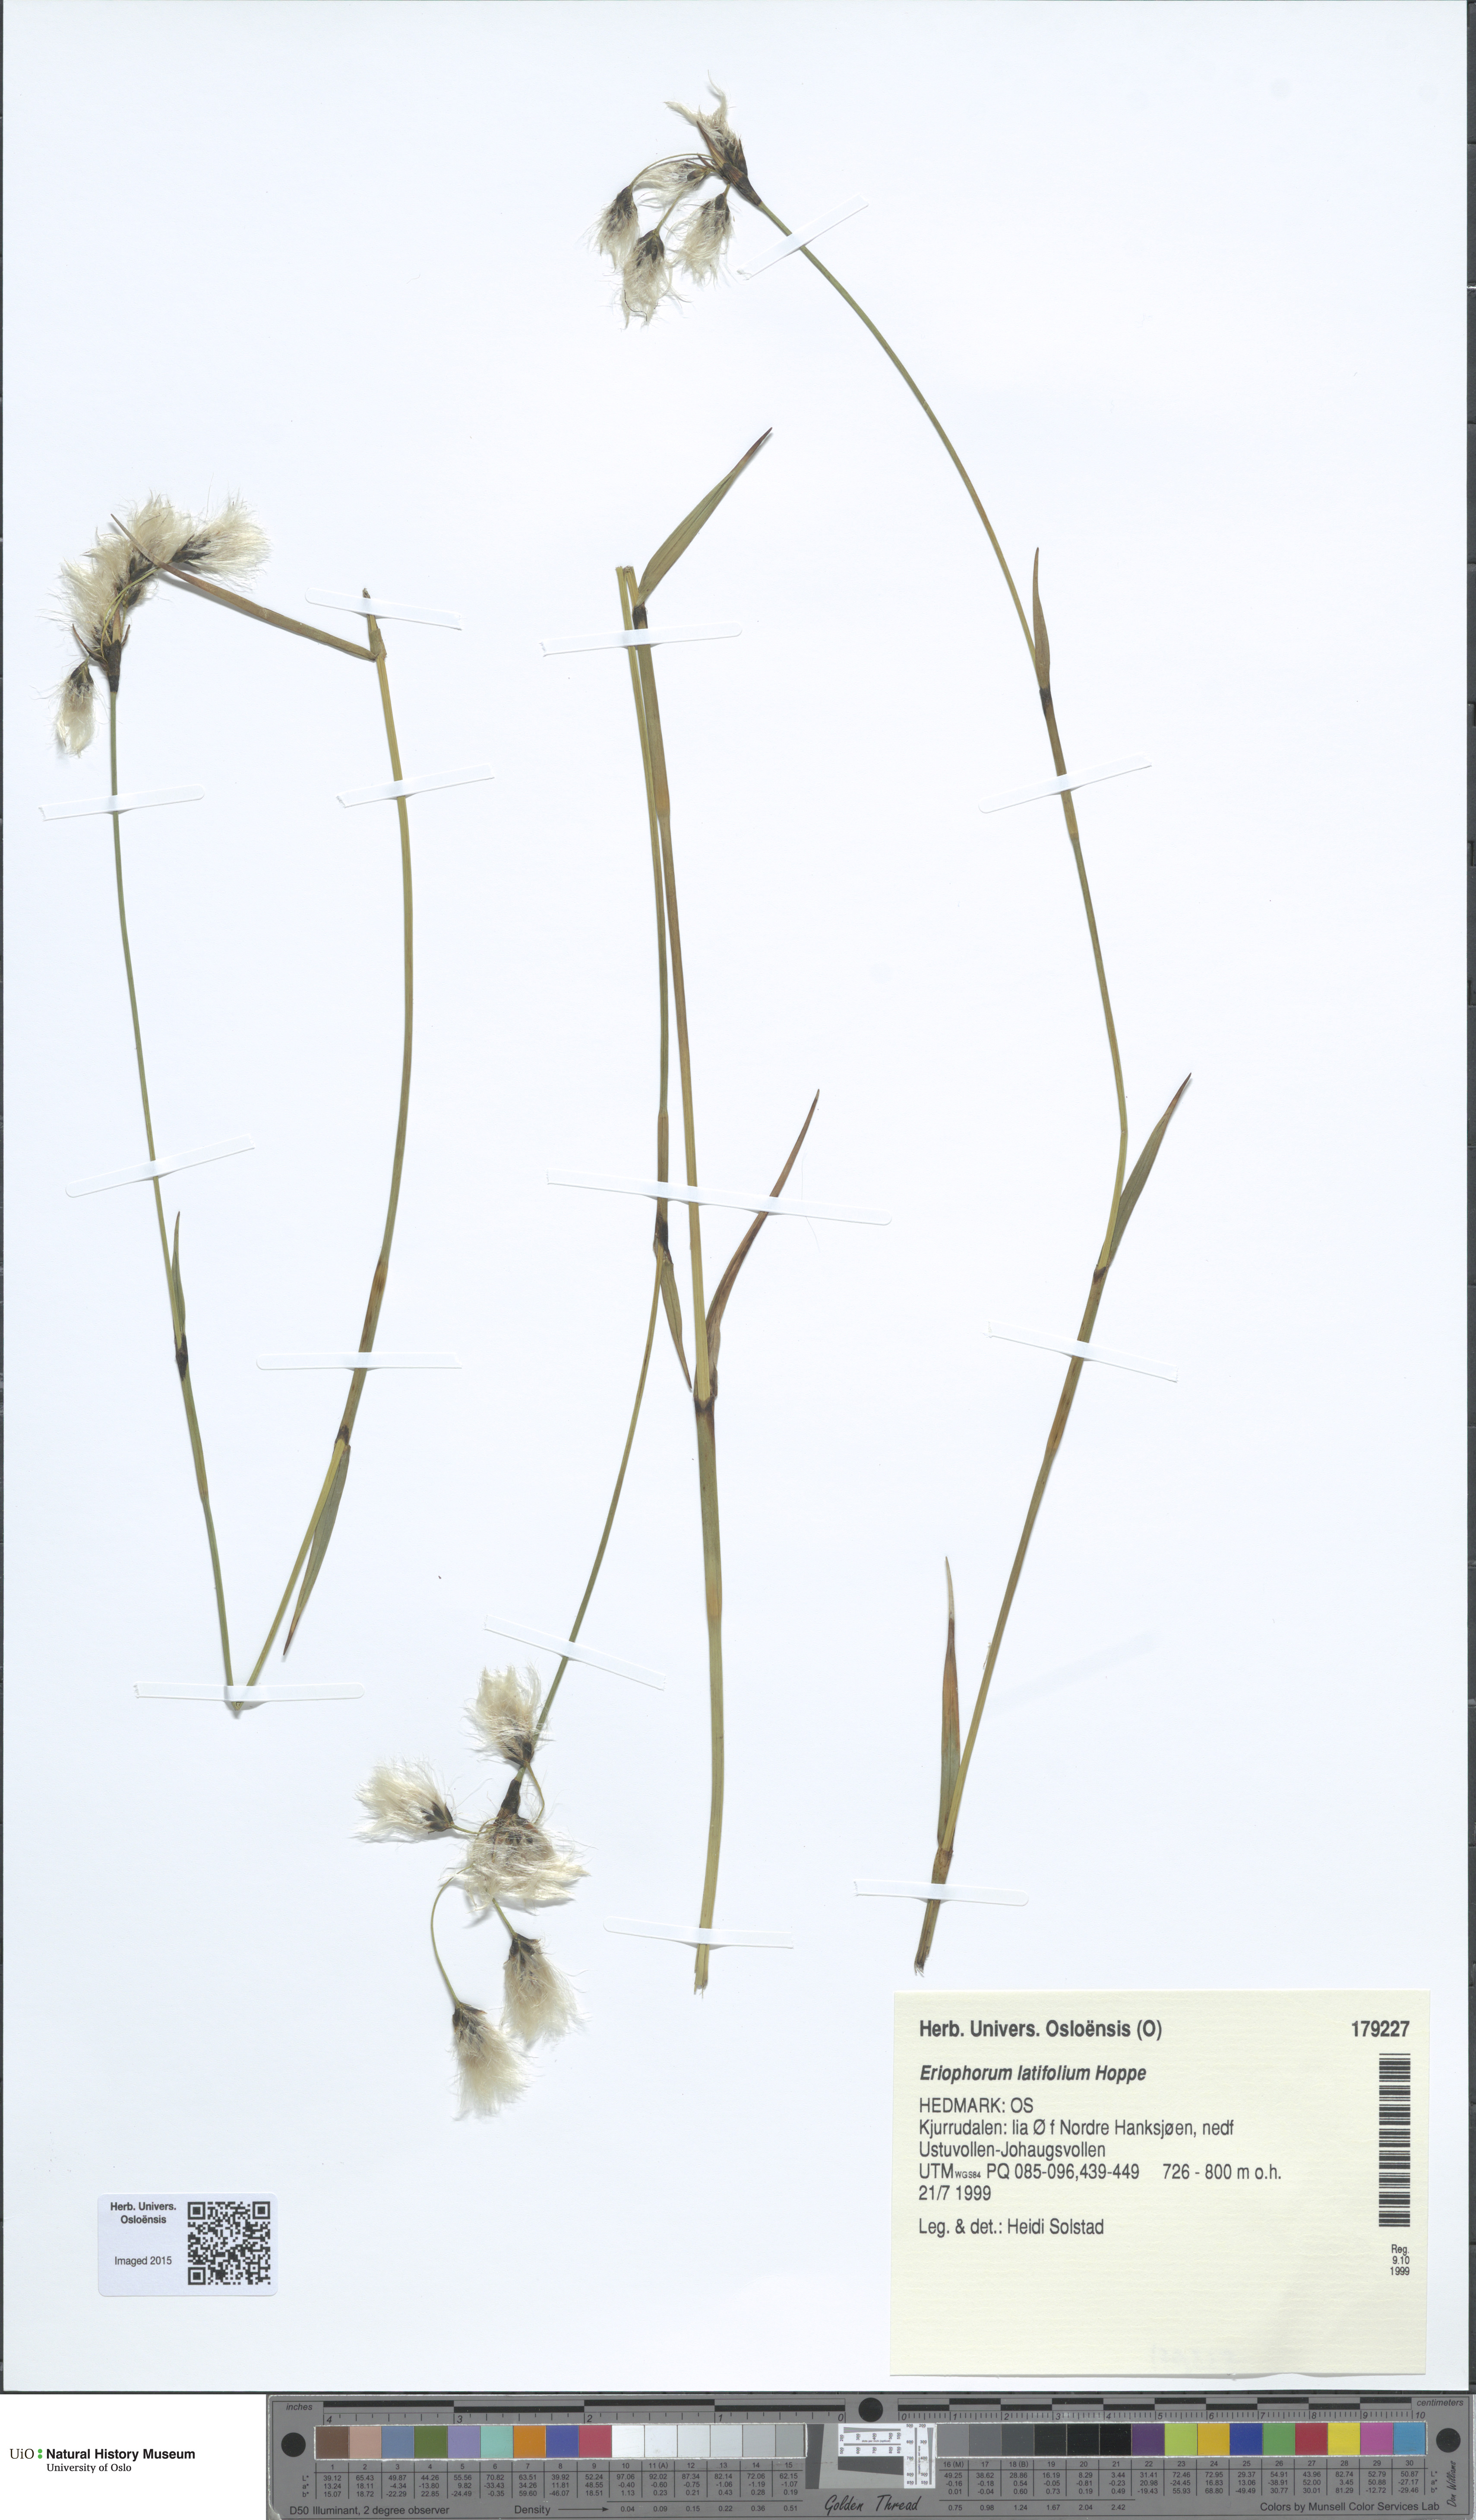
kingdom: Plantae
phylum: Tracheophyta
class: Liliopsida
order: Poales
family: Cyperaceae
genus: Eriophorum
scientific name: Eriophorum latifolium
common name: Broad-leaved cottongrass
